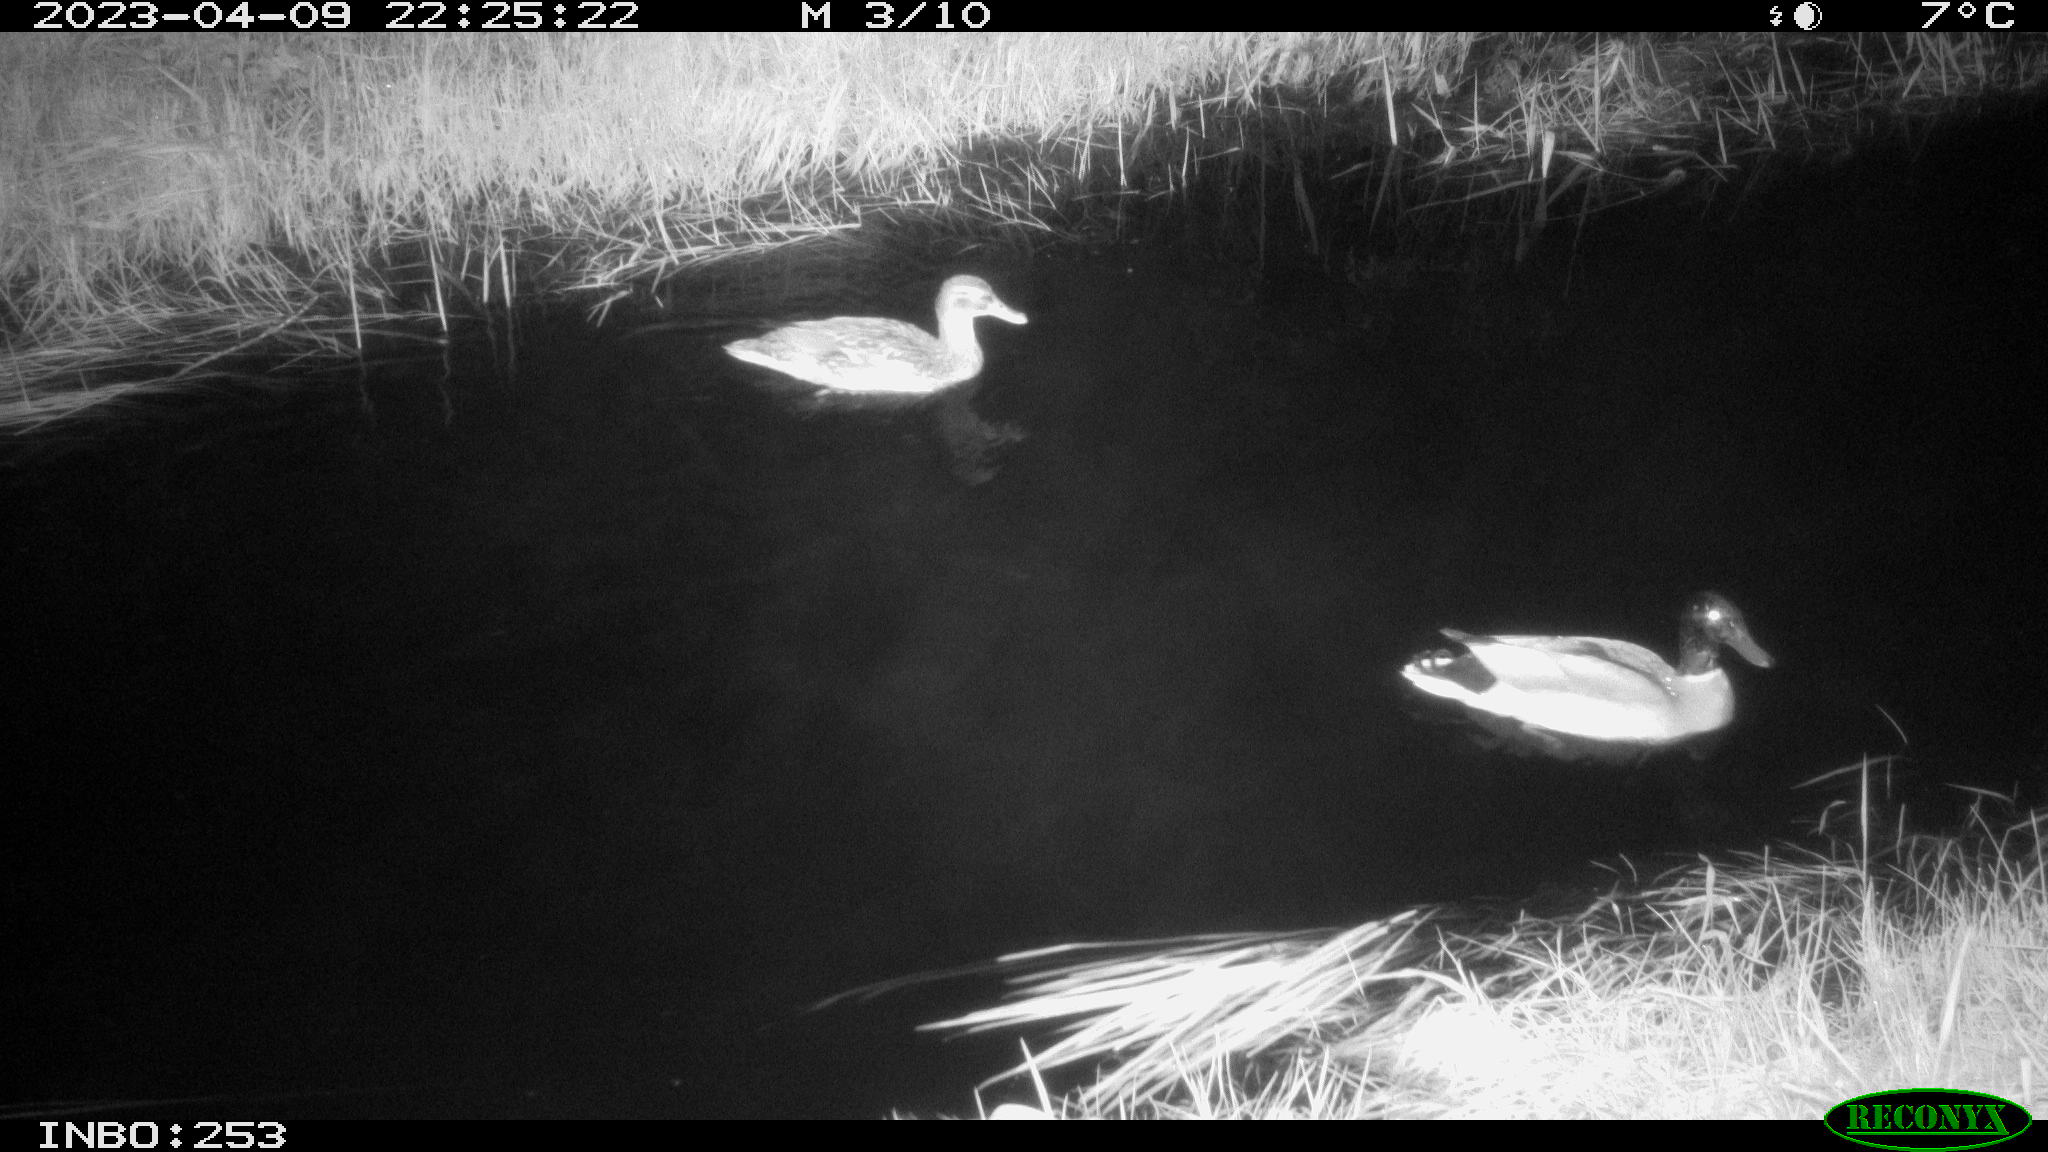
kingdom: Animalia
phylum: Chordata
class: Aves
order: Anseriformes
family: Anatidae
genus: Anas
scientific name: Anas
